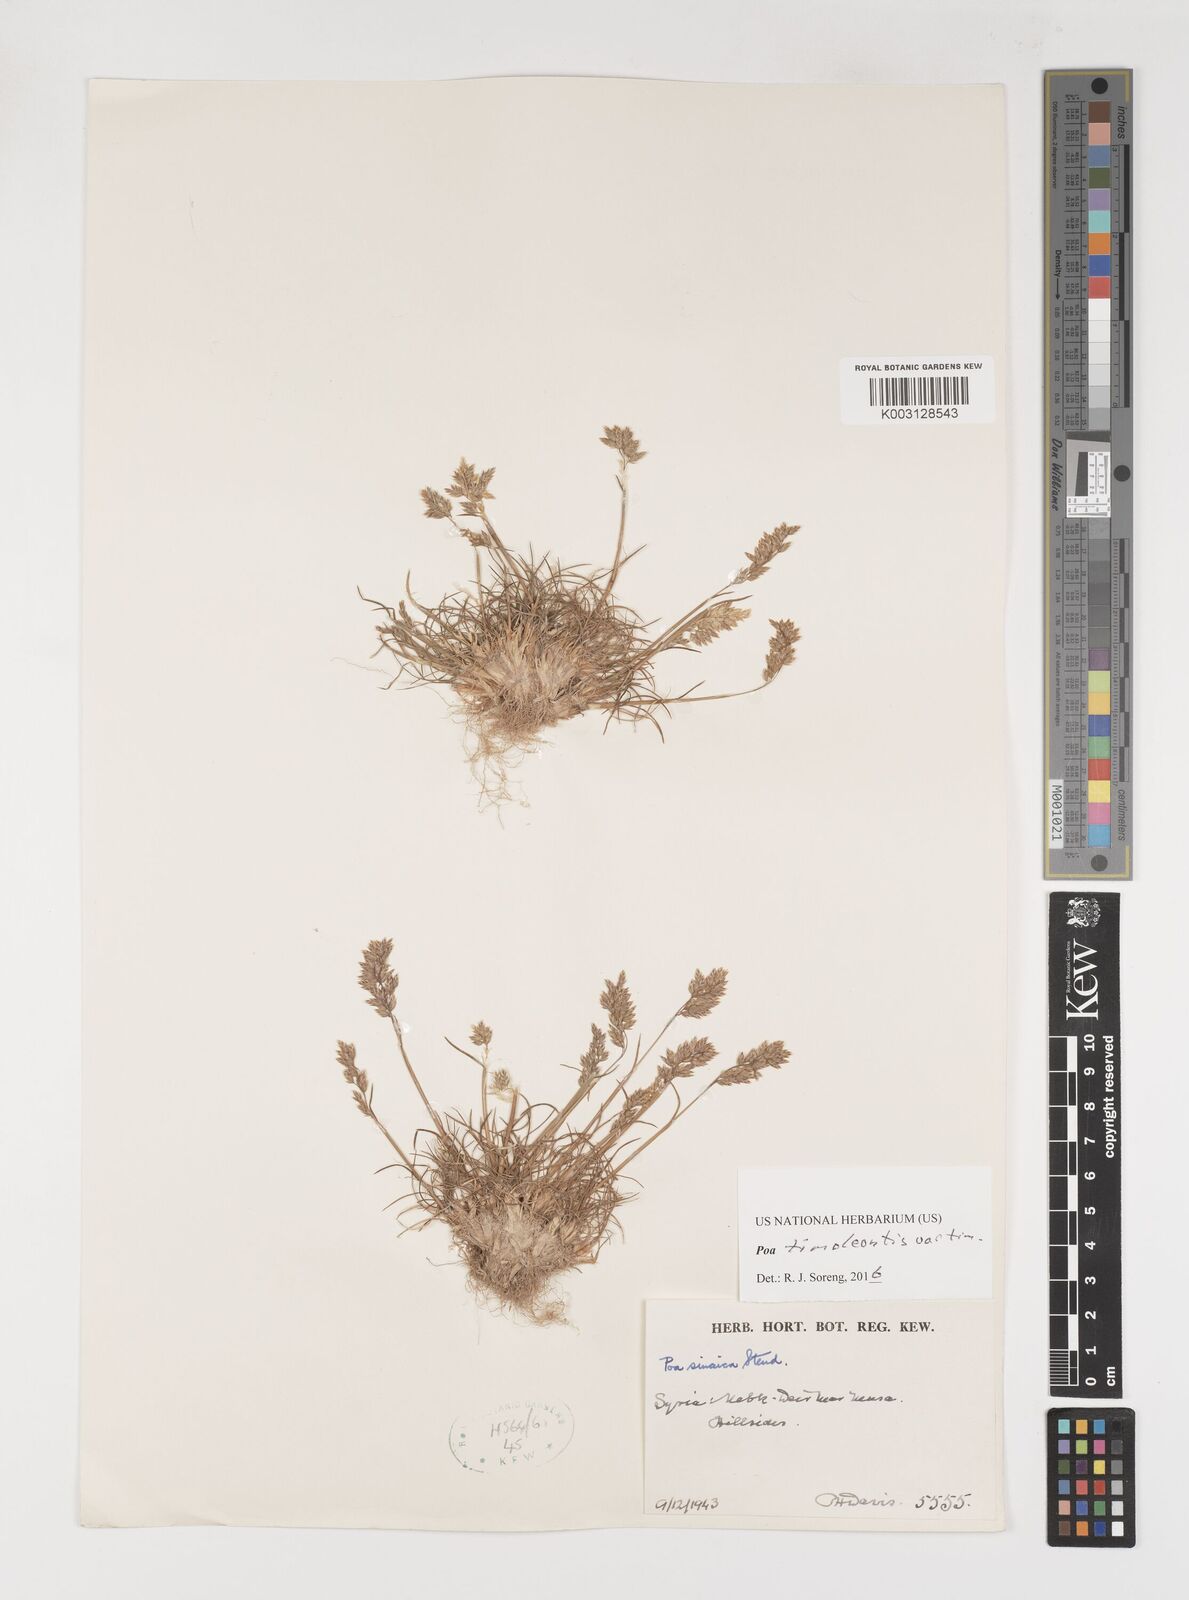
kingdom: Plantae
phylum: Tracheophyta
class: Liliopsida
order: Poales
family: Poaceae
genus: Poa
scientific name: Poa timoleontis
